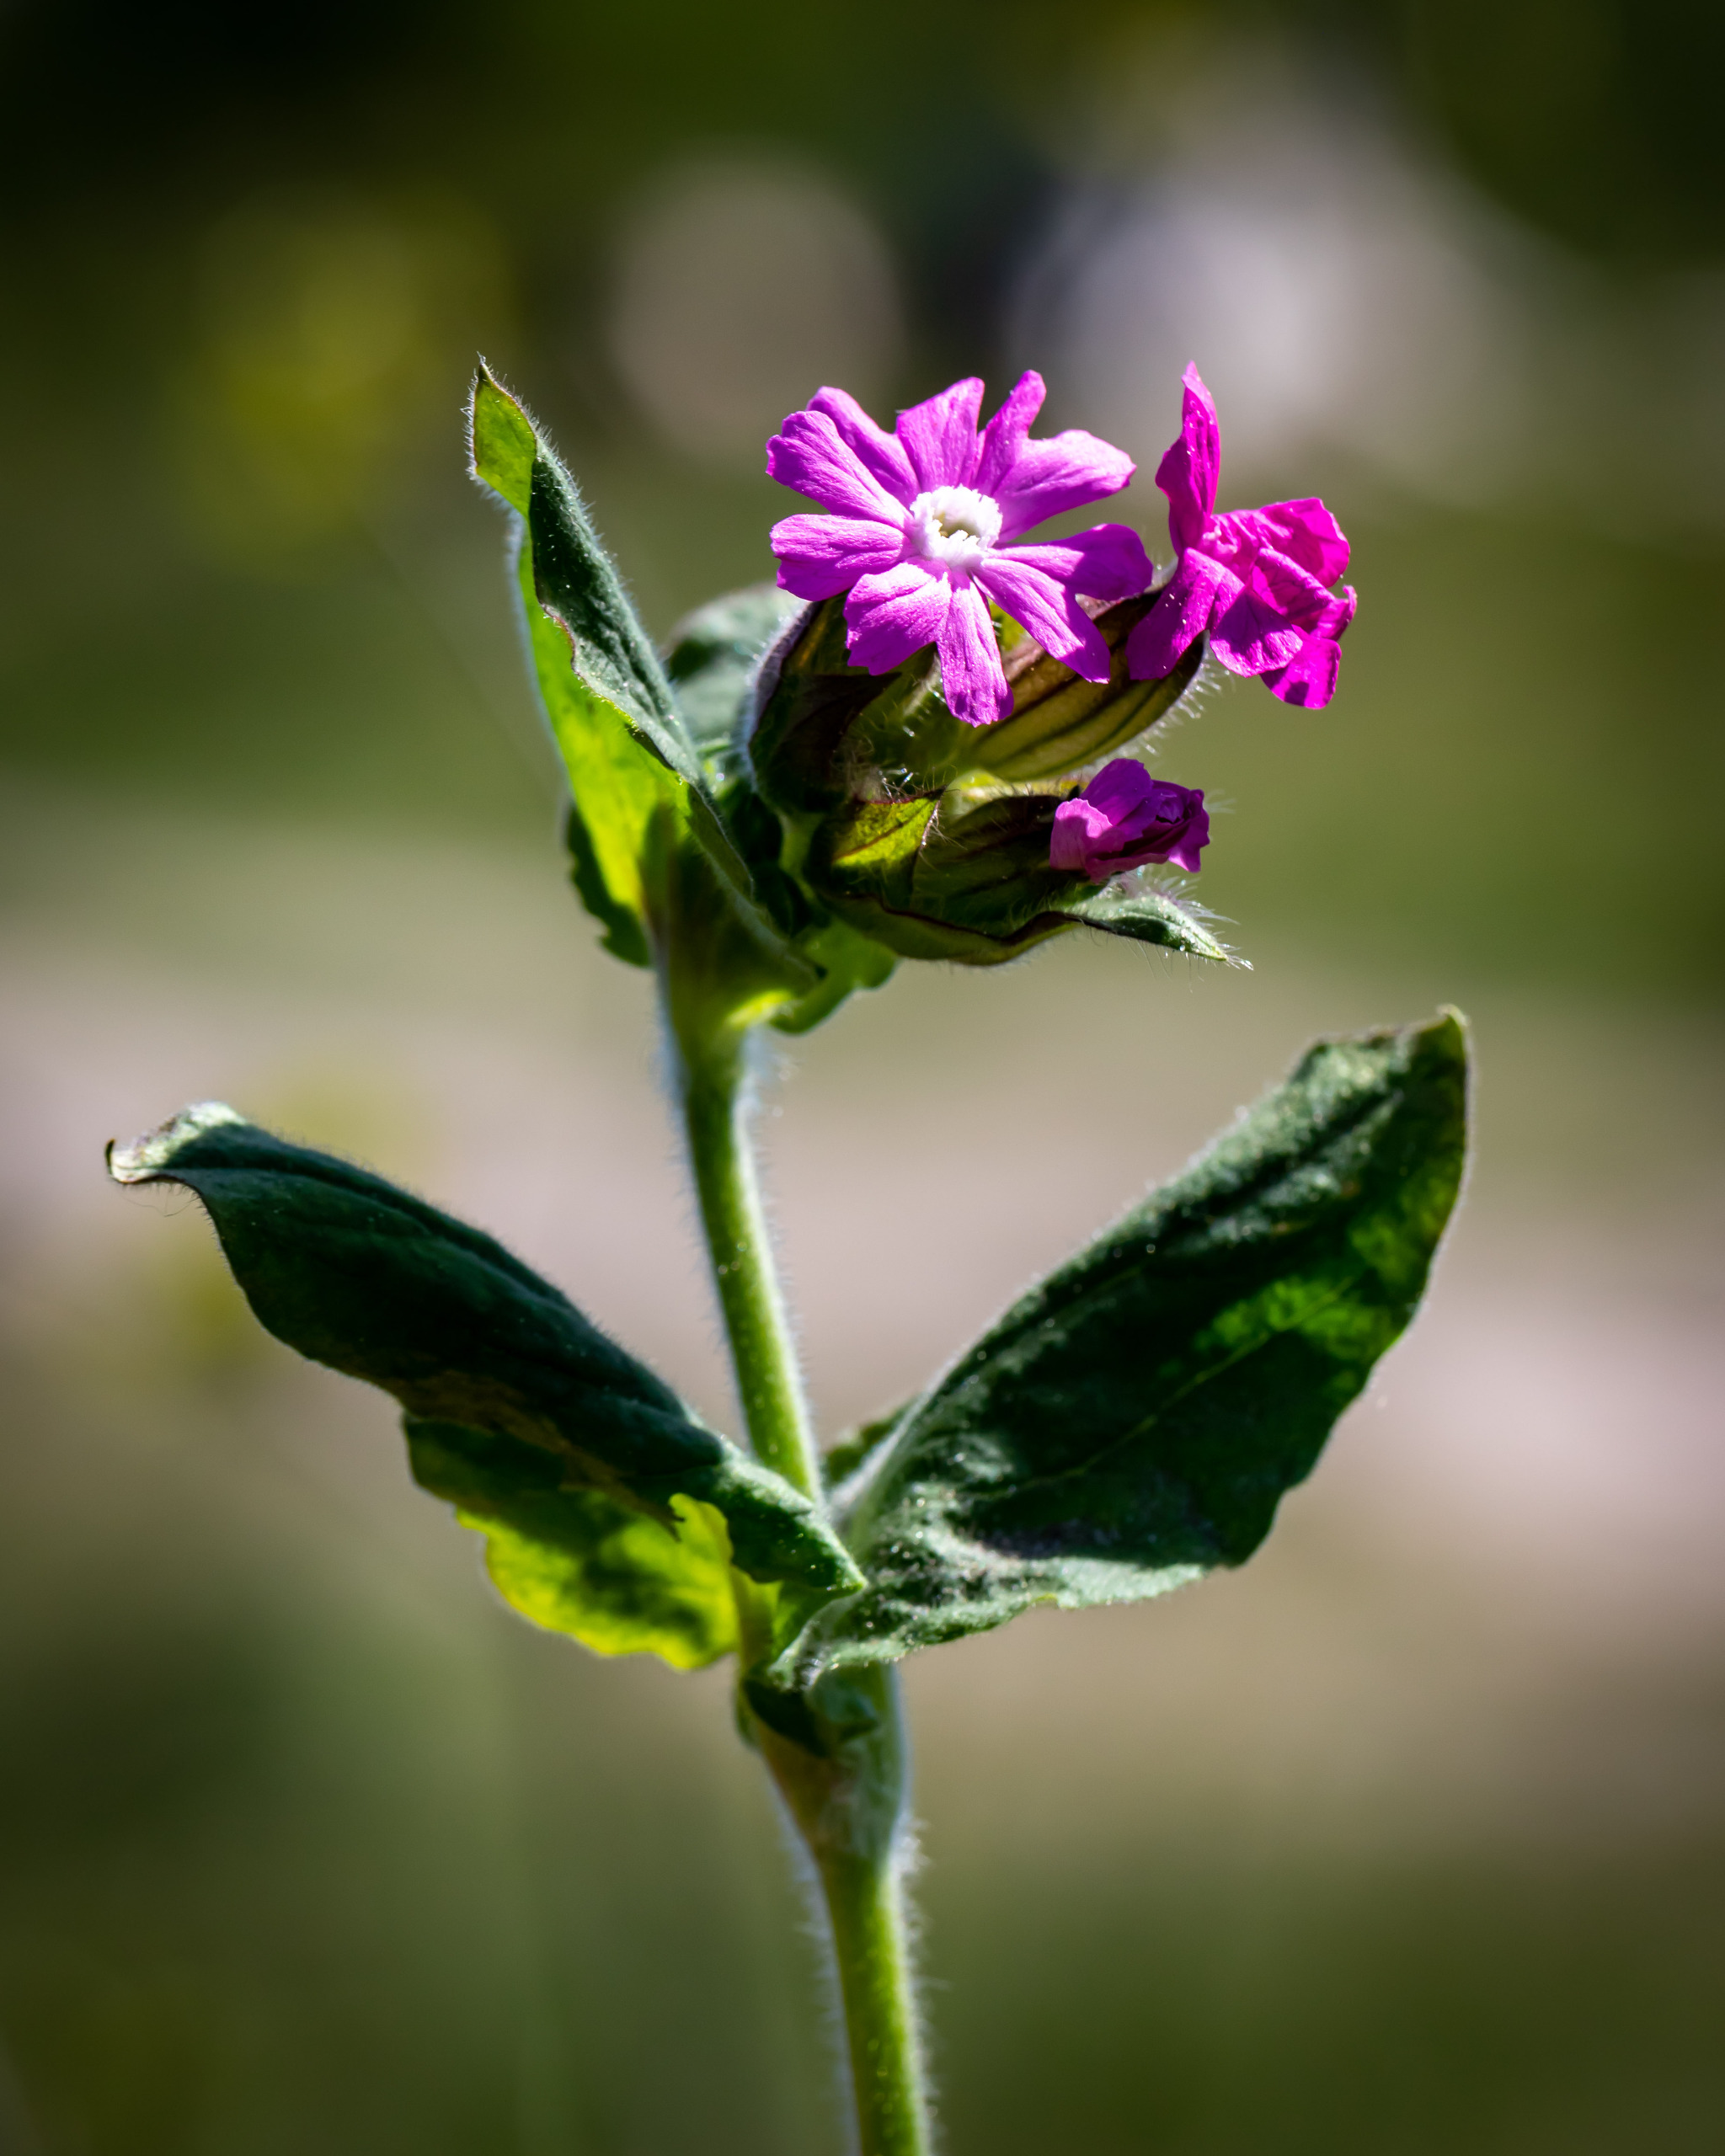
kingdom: Plantae
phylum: Tracheophyta
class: Magnoliopsida
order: Caryophyllales
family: Caryophyllaceae
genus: Silene
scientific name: Silene dioica
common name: Dagpragtstjerne
